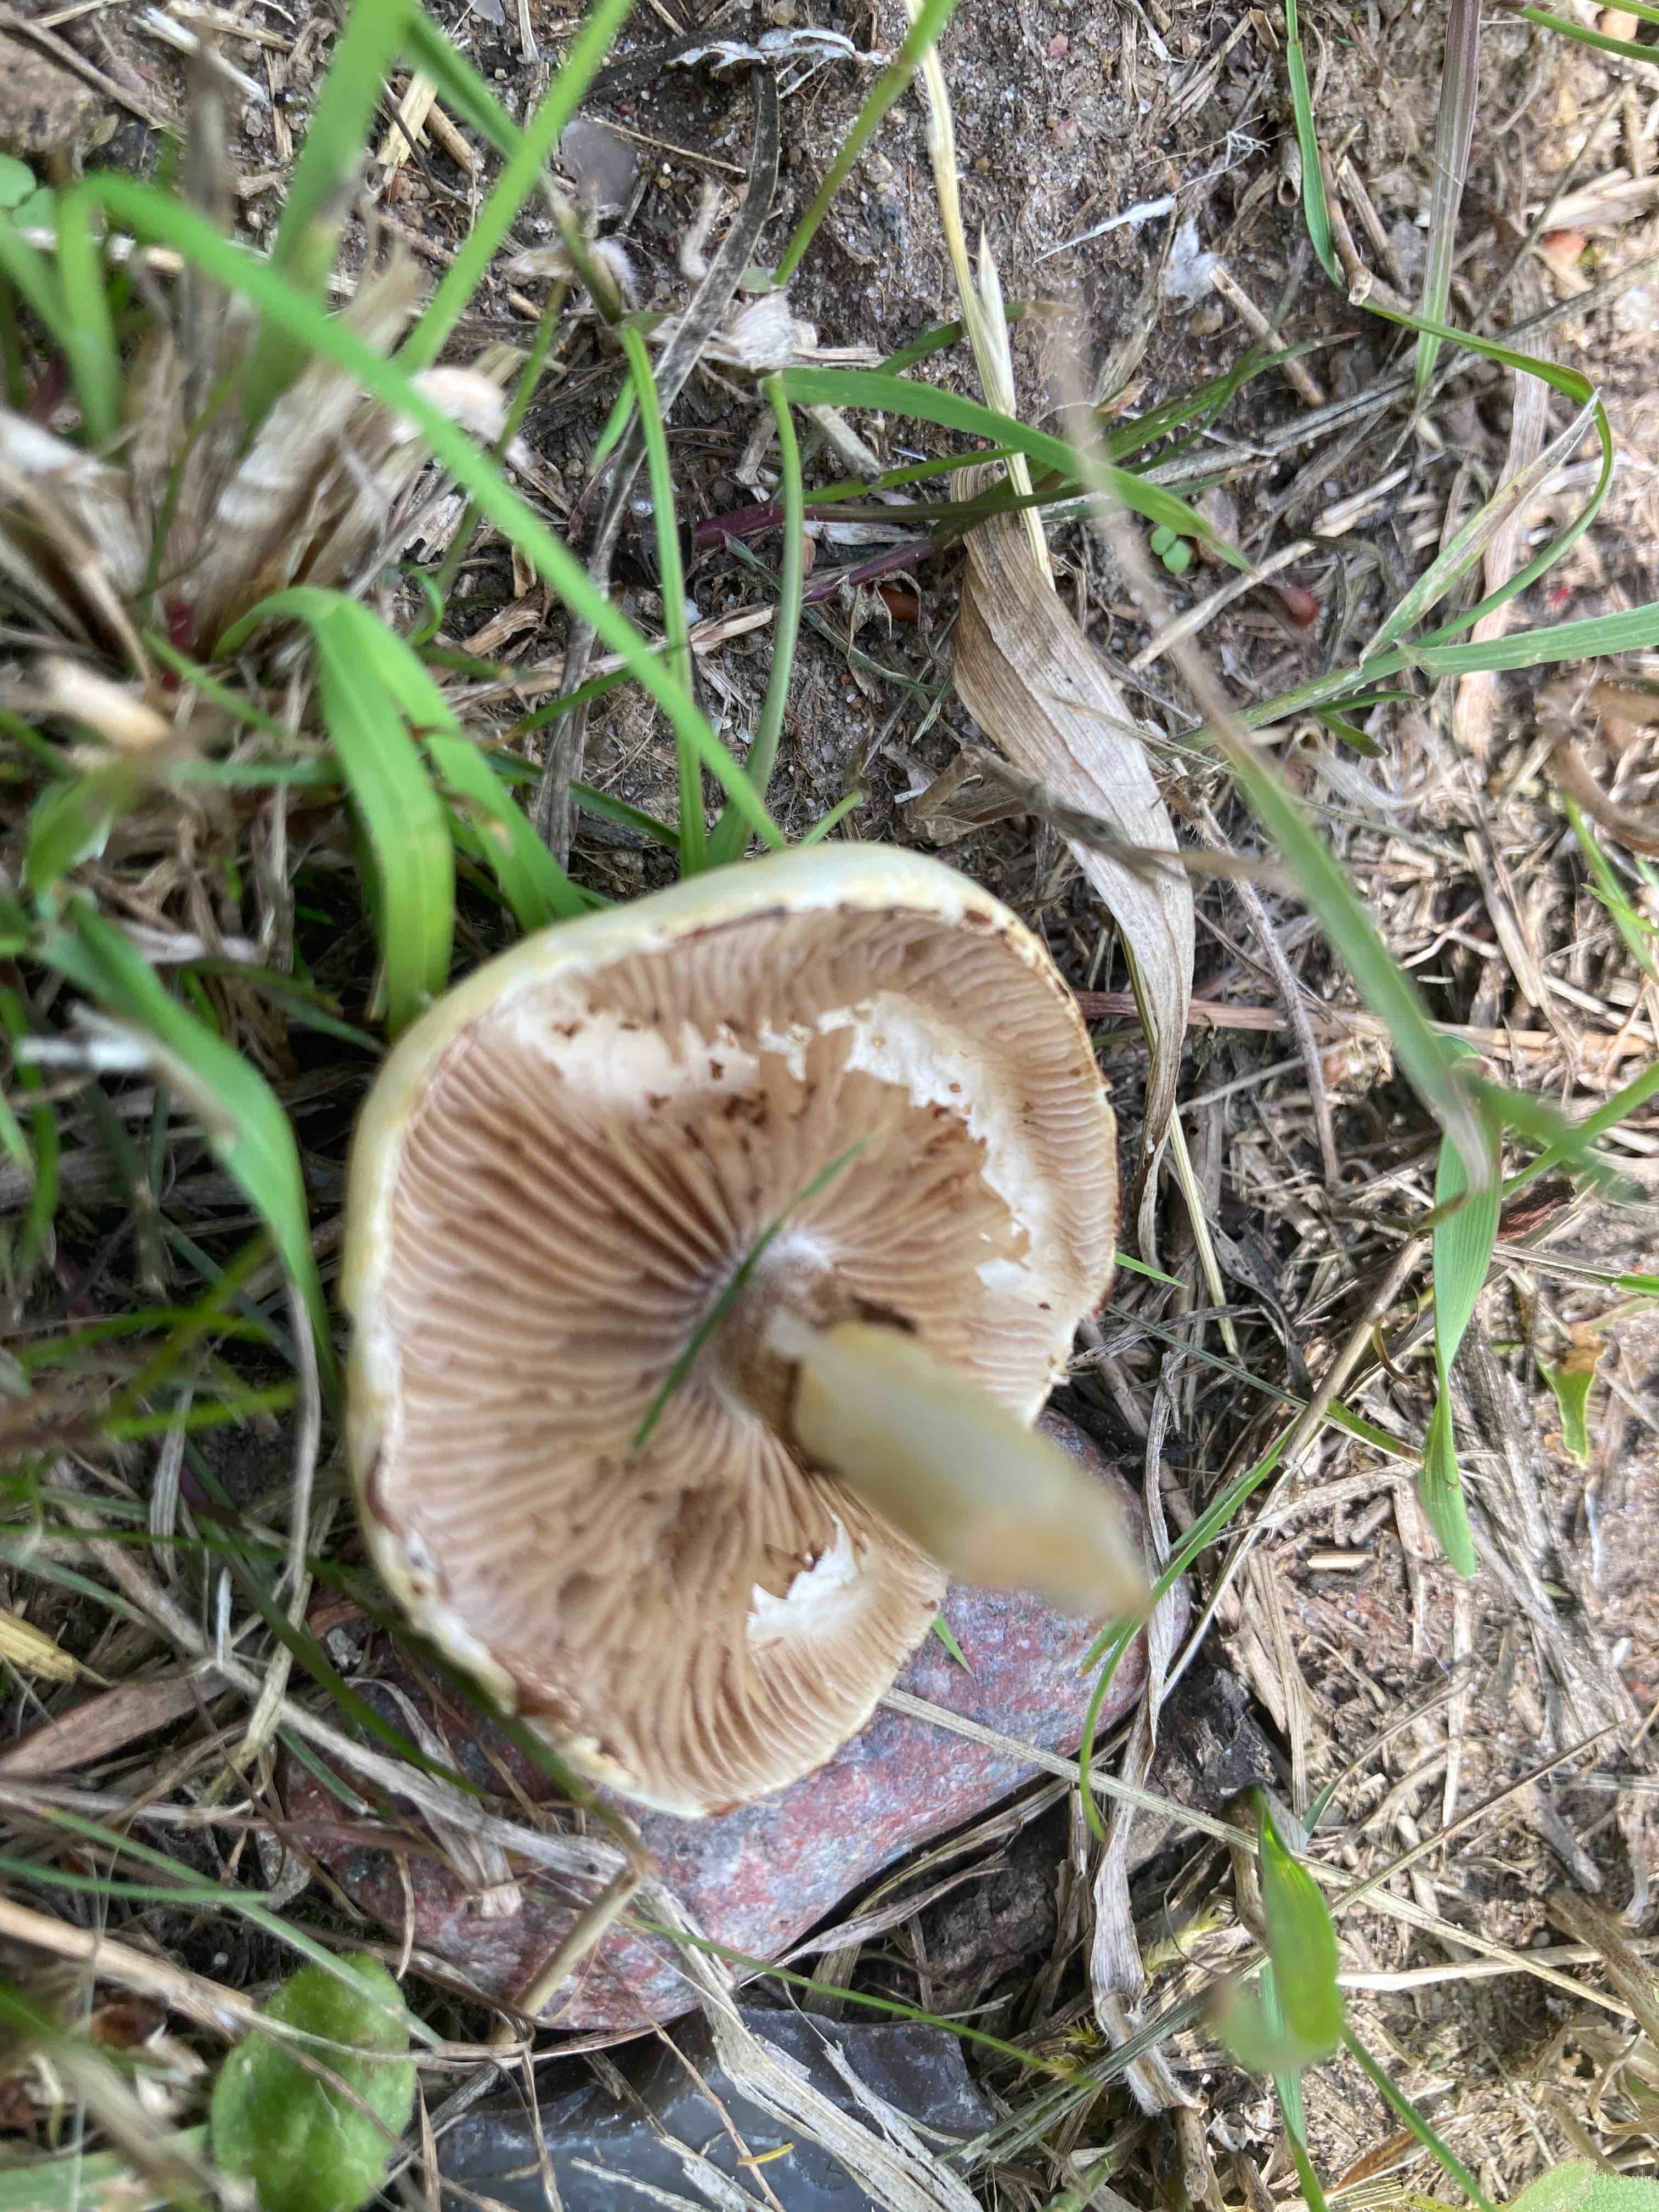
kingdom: Fungi
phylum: Basidiomycota
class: Agaricomycetes
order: Agaricales
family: Strophariaceae
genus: Agrocybe
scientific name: Agrocybe dura
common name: fastkødet agerhat
